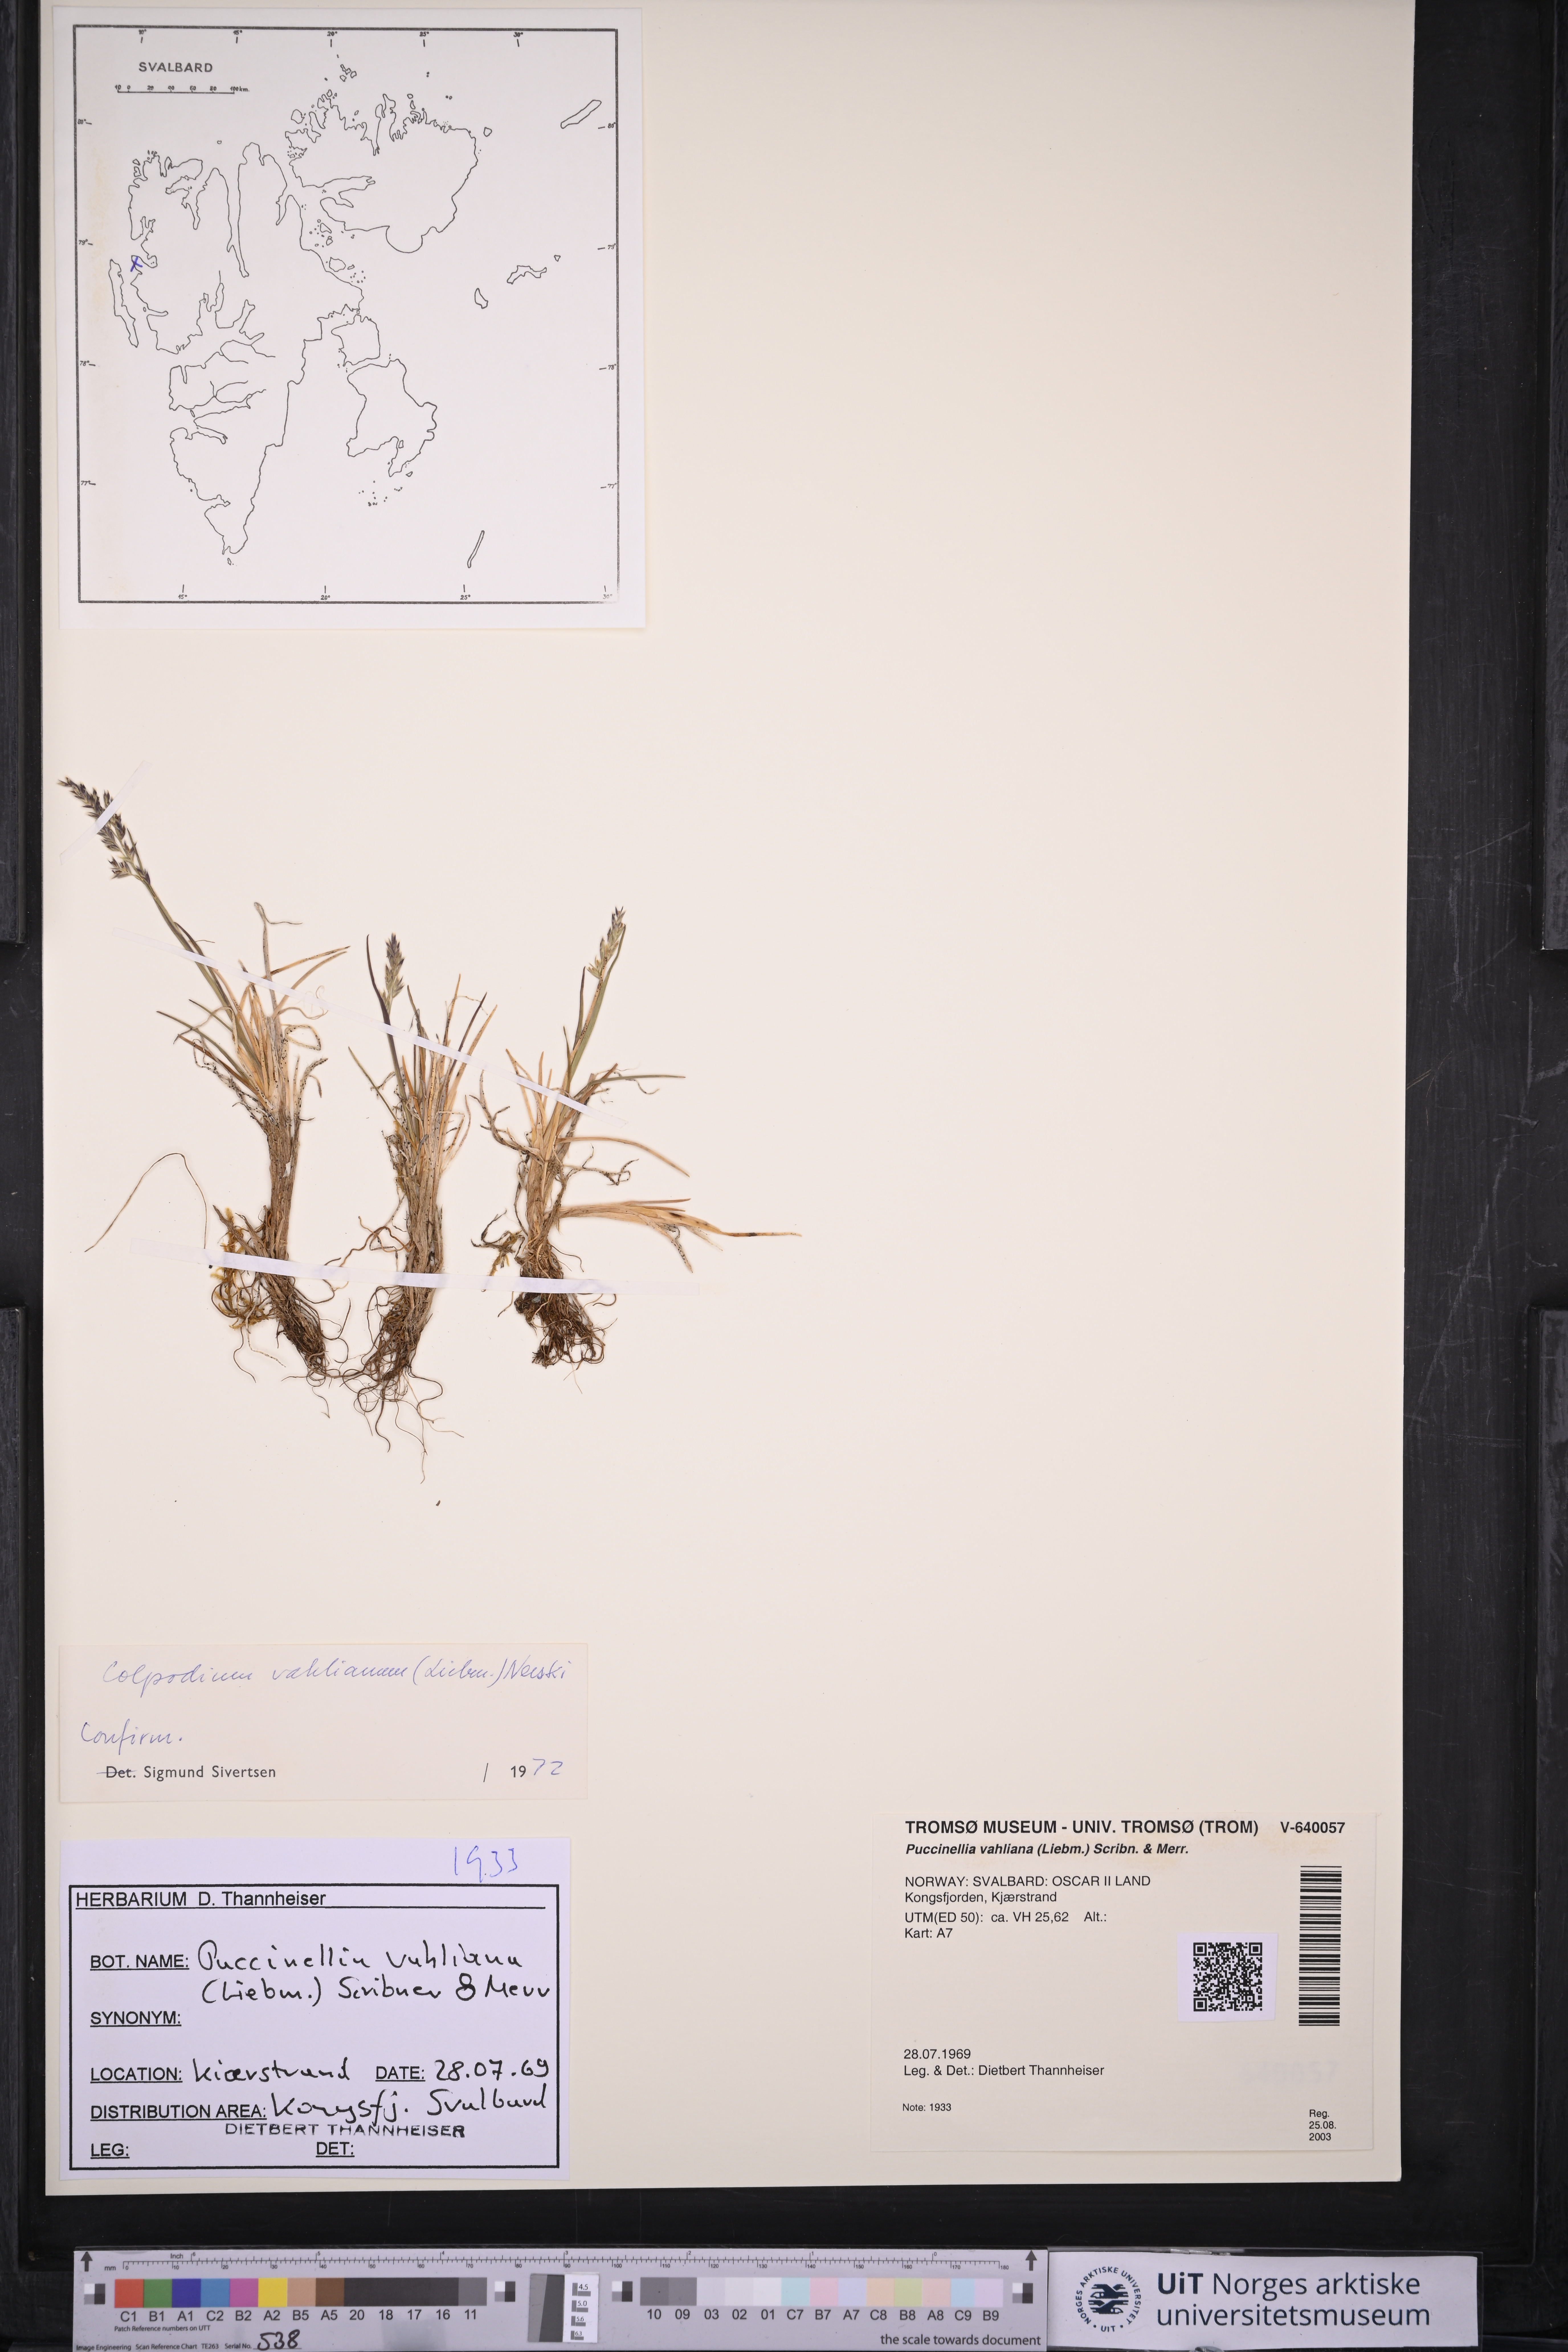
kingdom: Plantae
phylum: Tracheophyta
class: Liliopsida
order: Poales
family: Poaceae
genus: Puccinellia
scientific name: Puccinellia vahliana
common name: Vahl's alkaligrass
